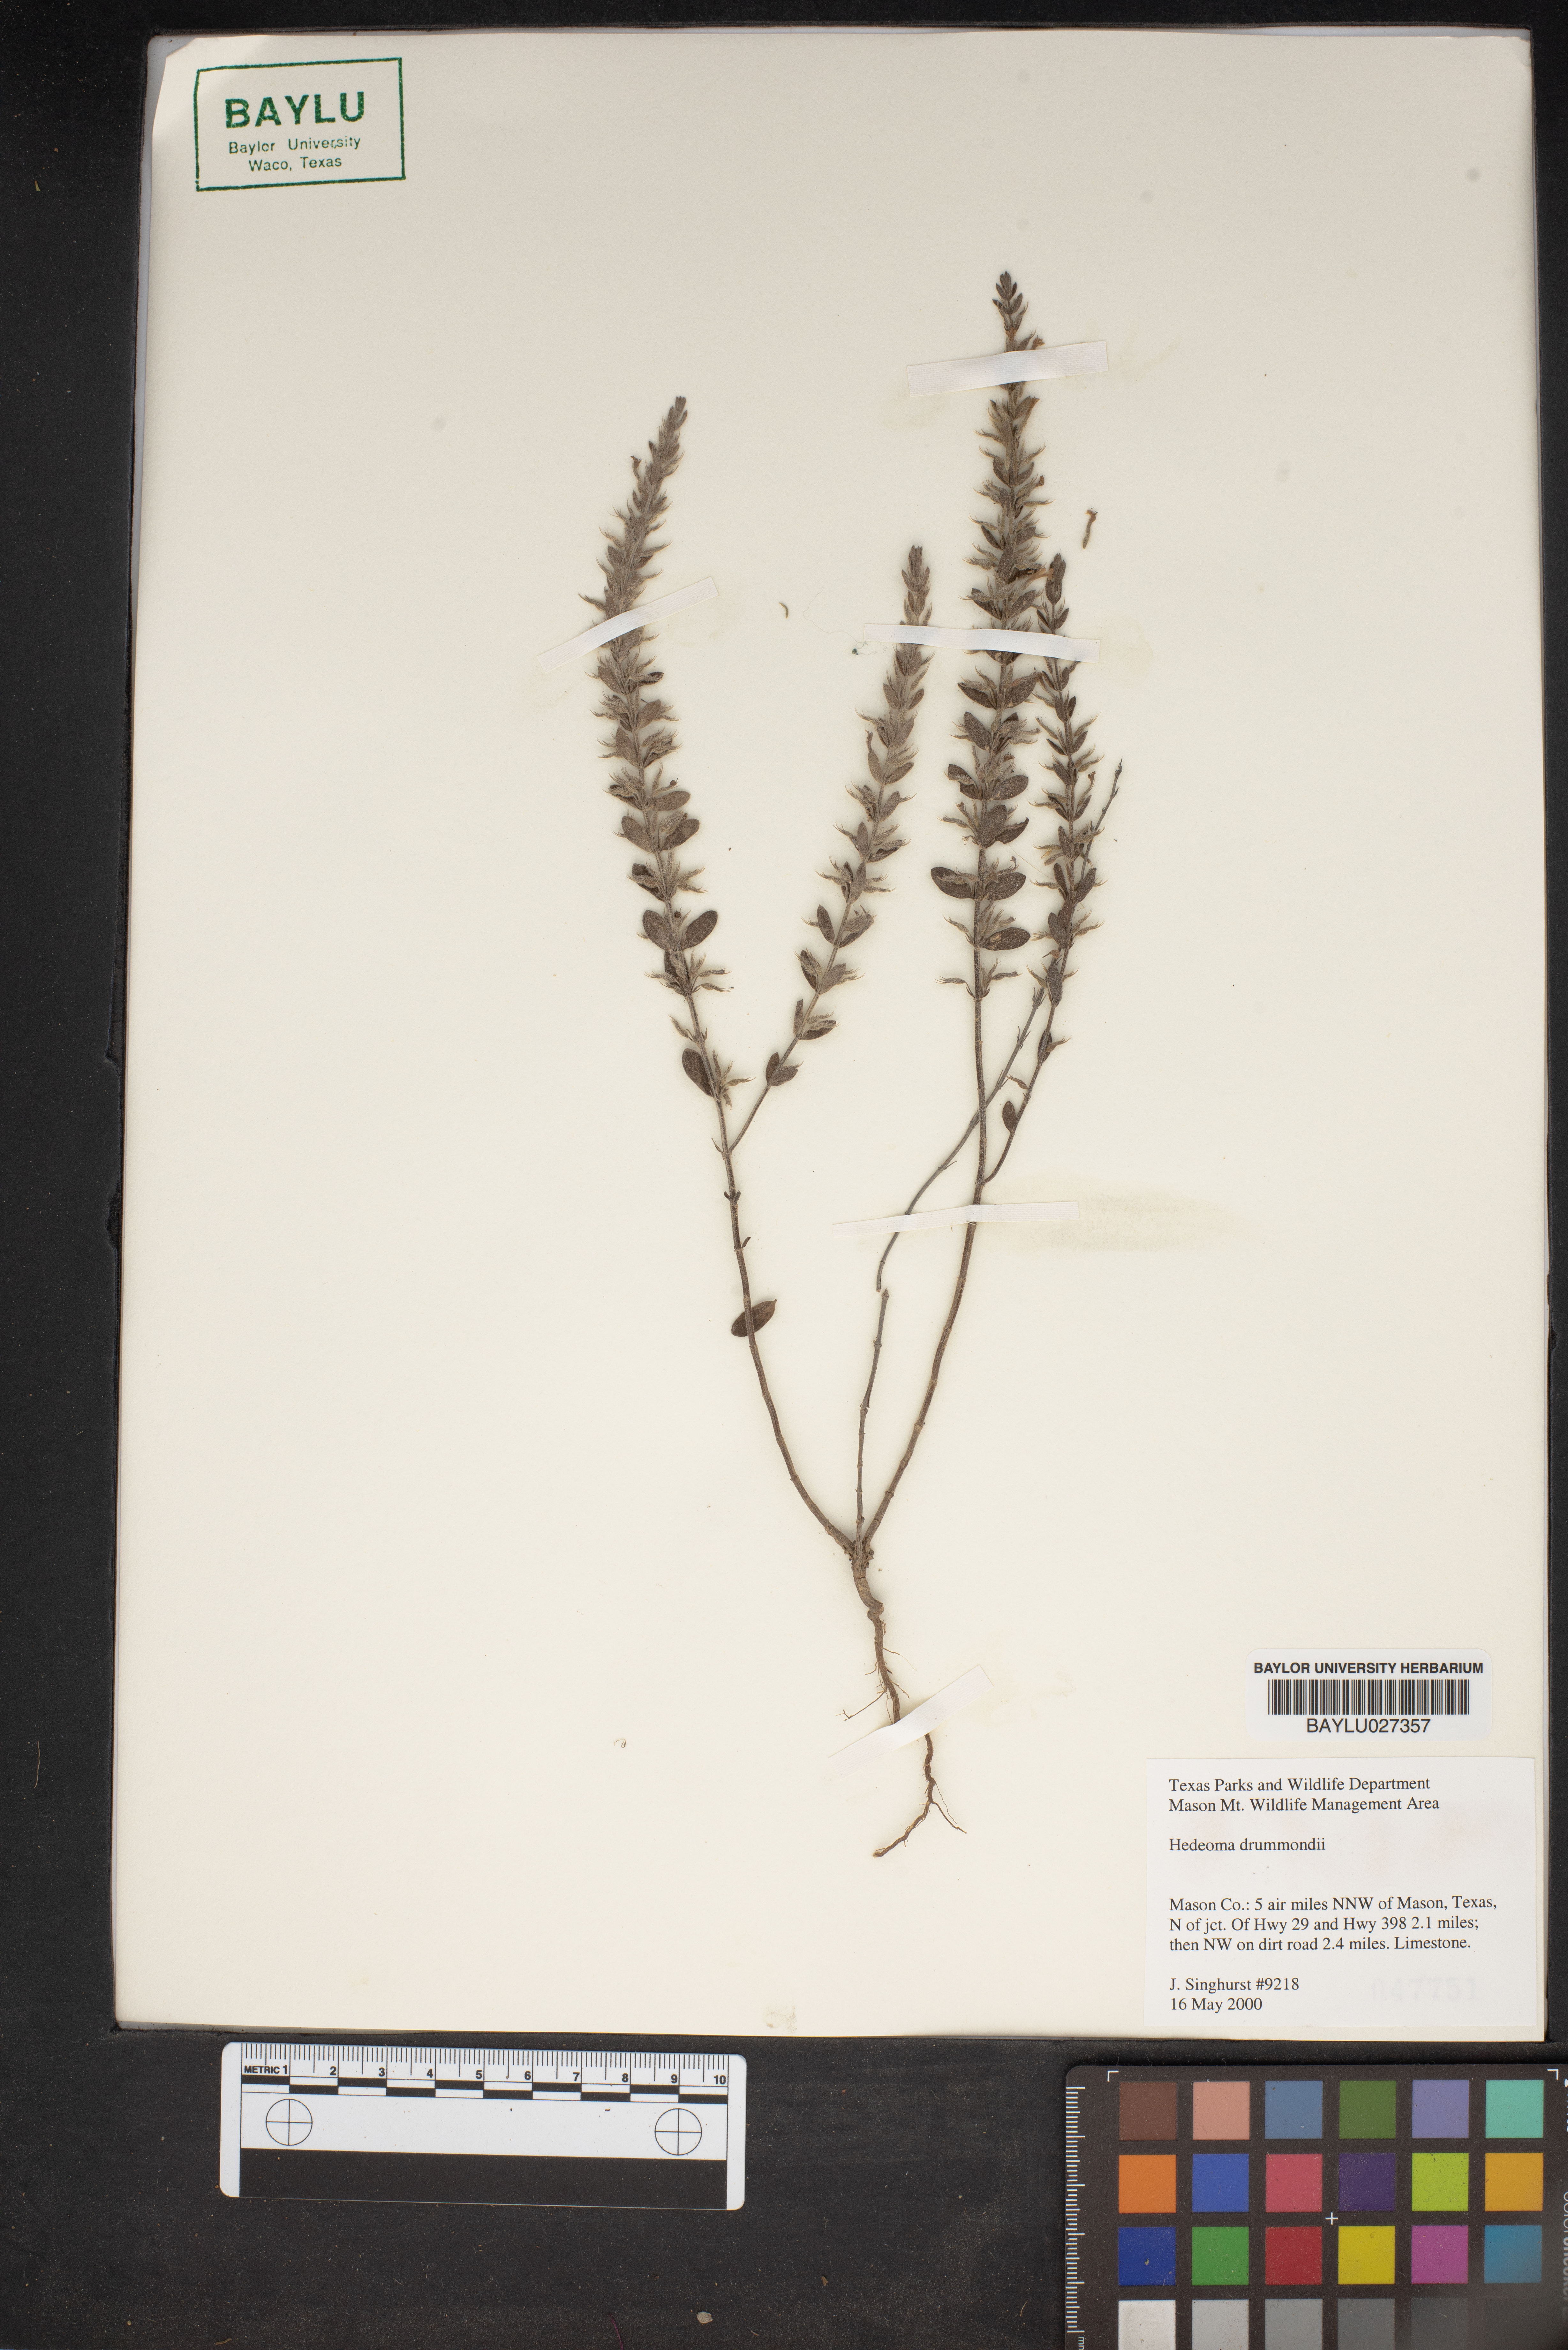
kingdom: Plantae
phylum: Tracheophyta
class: Magnoliopsida
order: Lamiales
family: Lamiaceae
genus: Hedeoma
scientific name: Hedeoma drummondii
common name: New mexico pennyroyal
